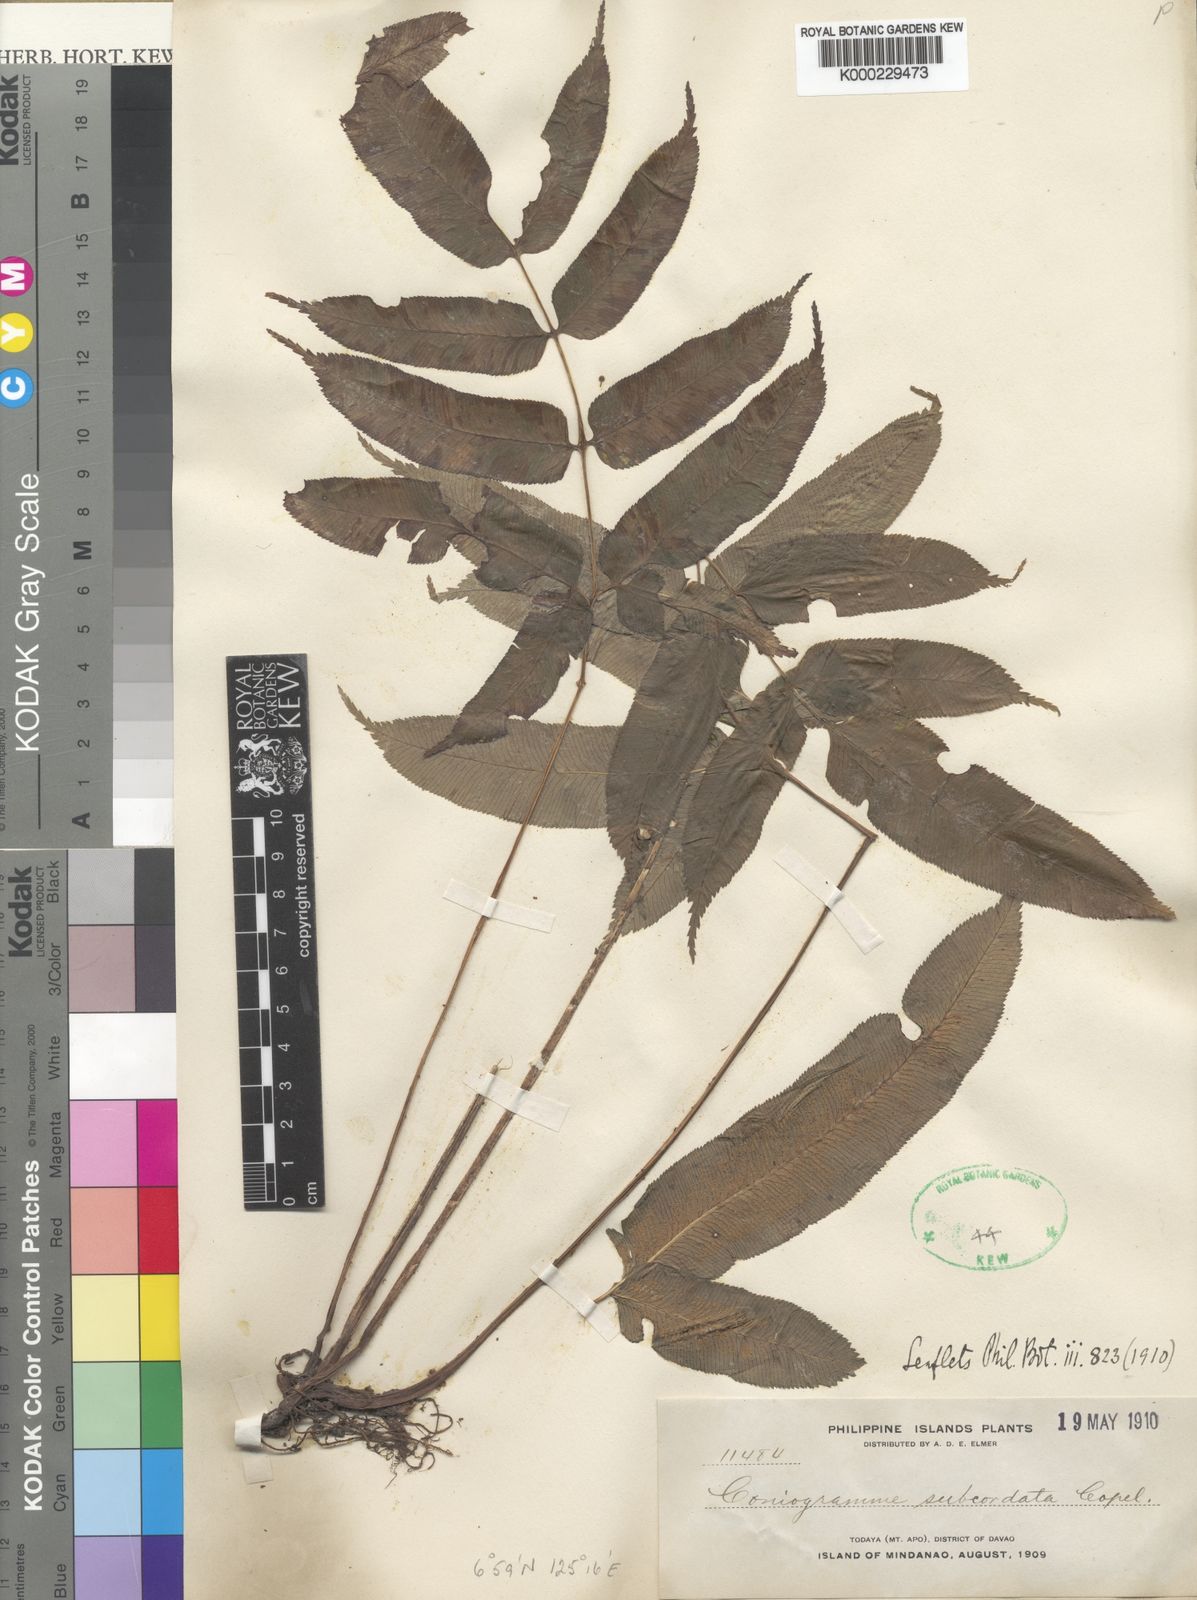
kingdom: Plantae
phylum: Tracheophyta
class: Polypodiopsida
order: Polypodiales
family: Pteridaceae
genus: Coniogramme
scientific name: Coniogramme serrulata
